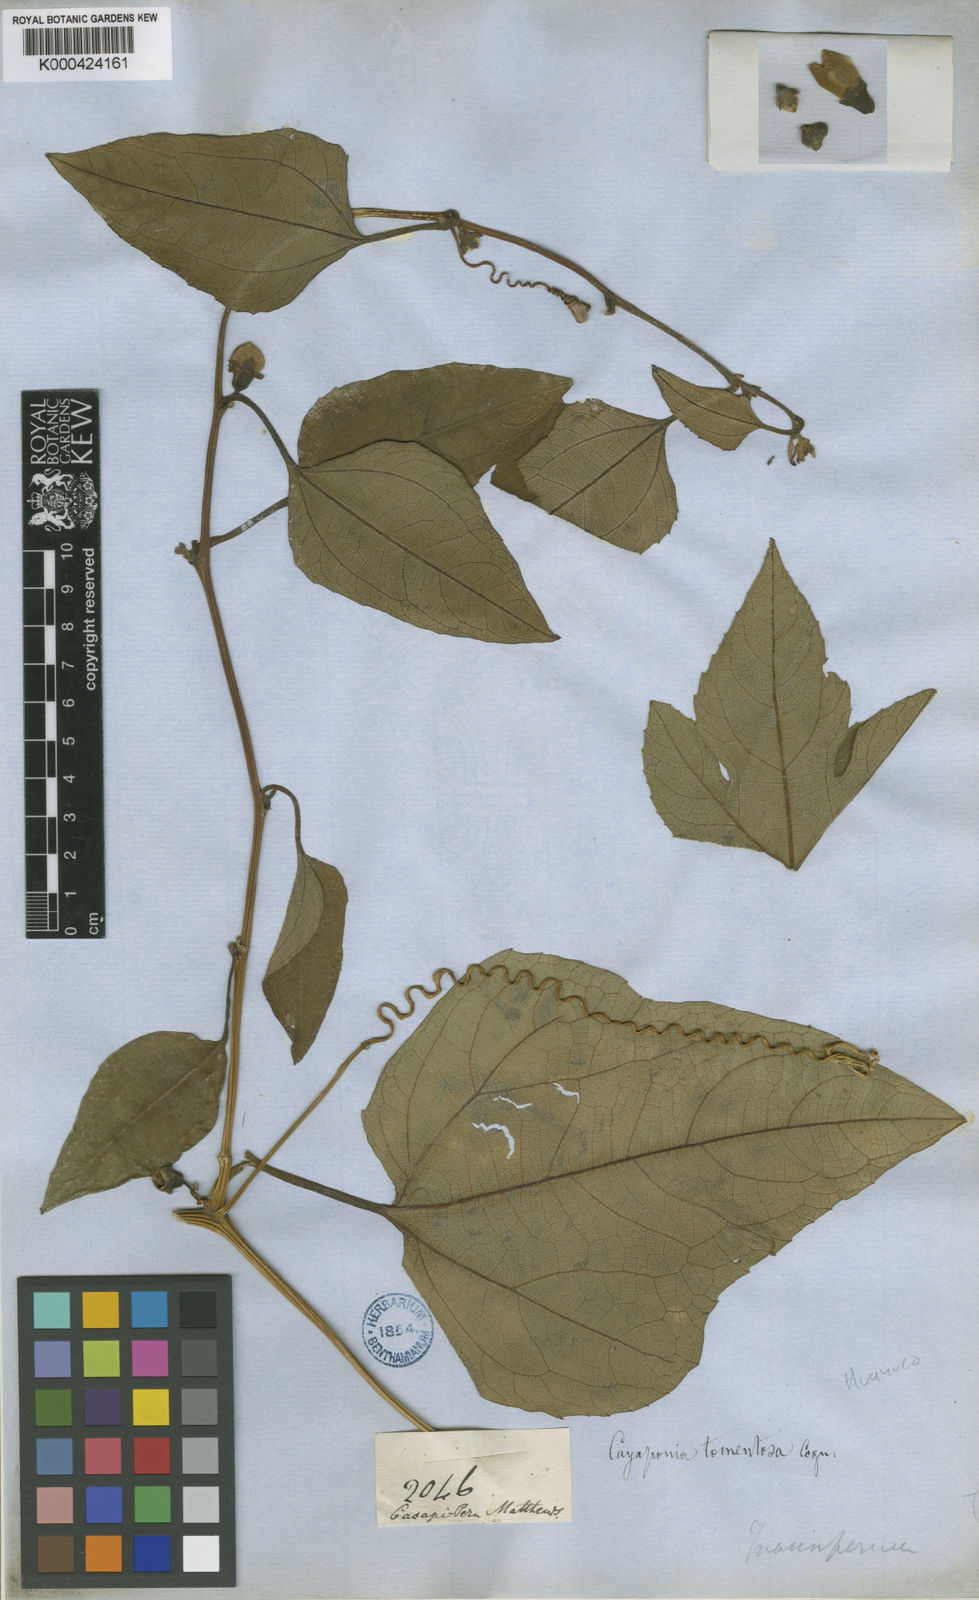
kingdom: Plantae
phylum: Tracheophyta
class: Magnoliopsida
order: Cucurbitales
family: Cucurbitaceae
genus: Cayaponia
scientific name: Cayaponia glandulosa
